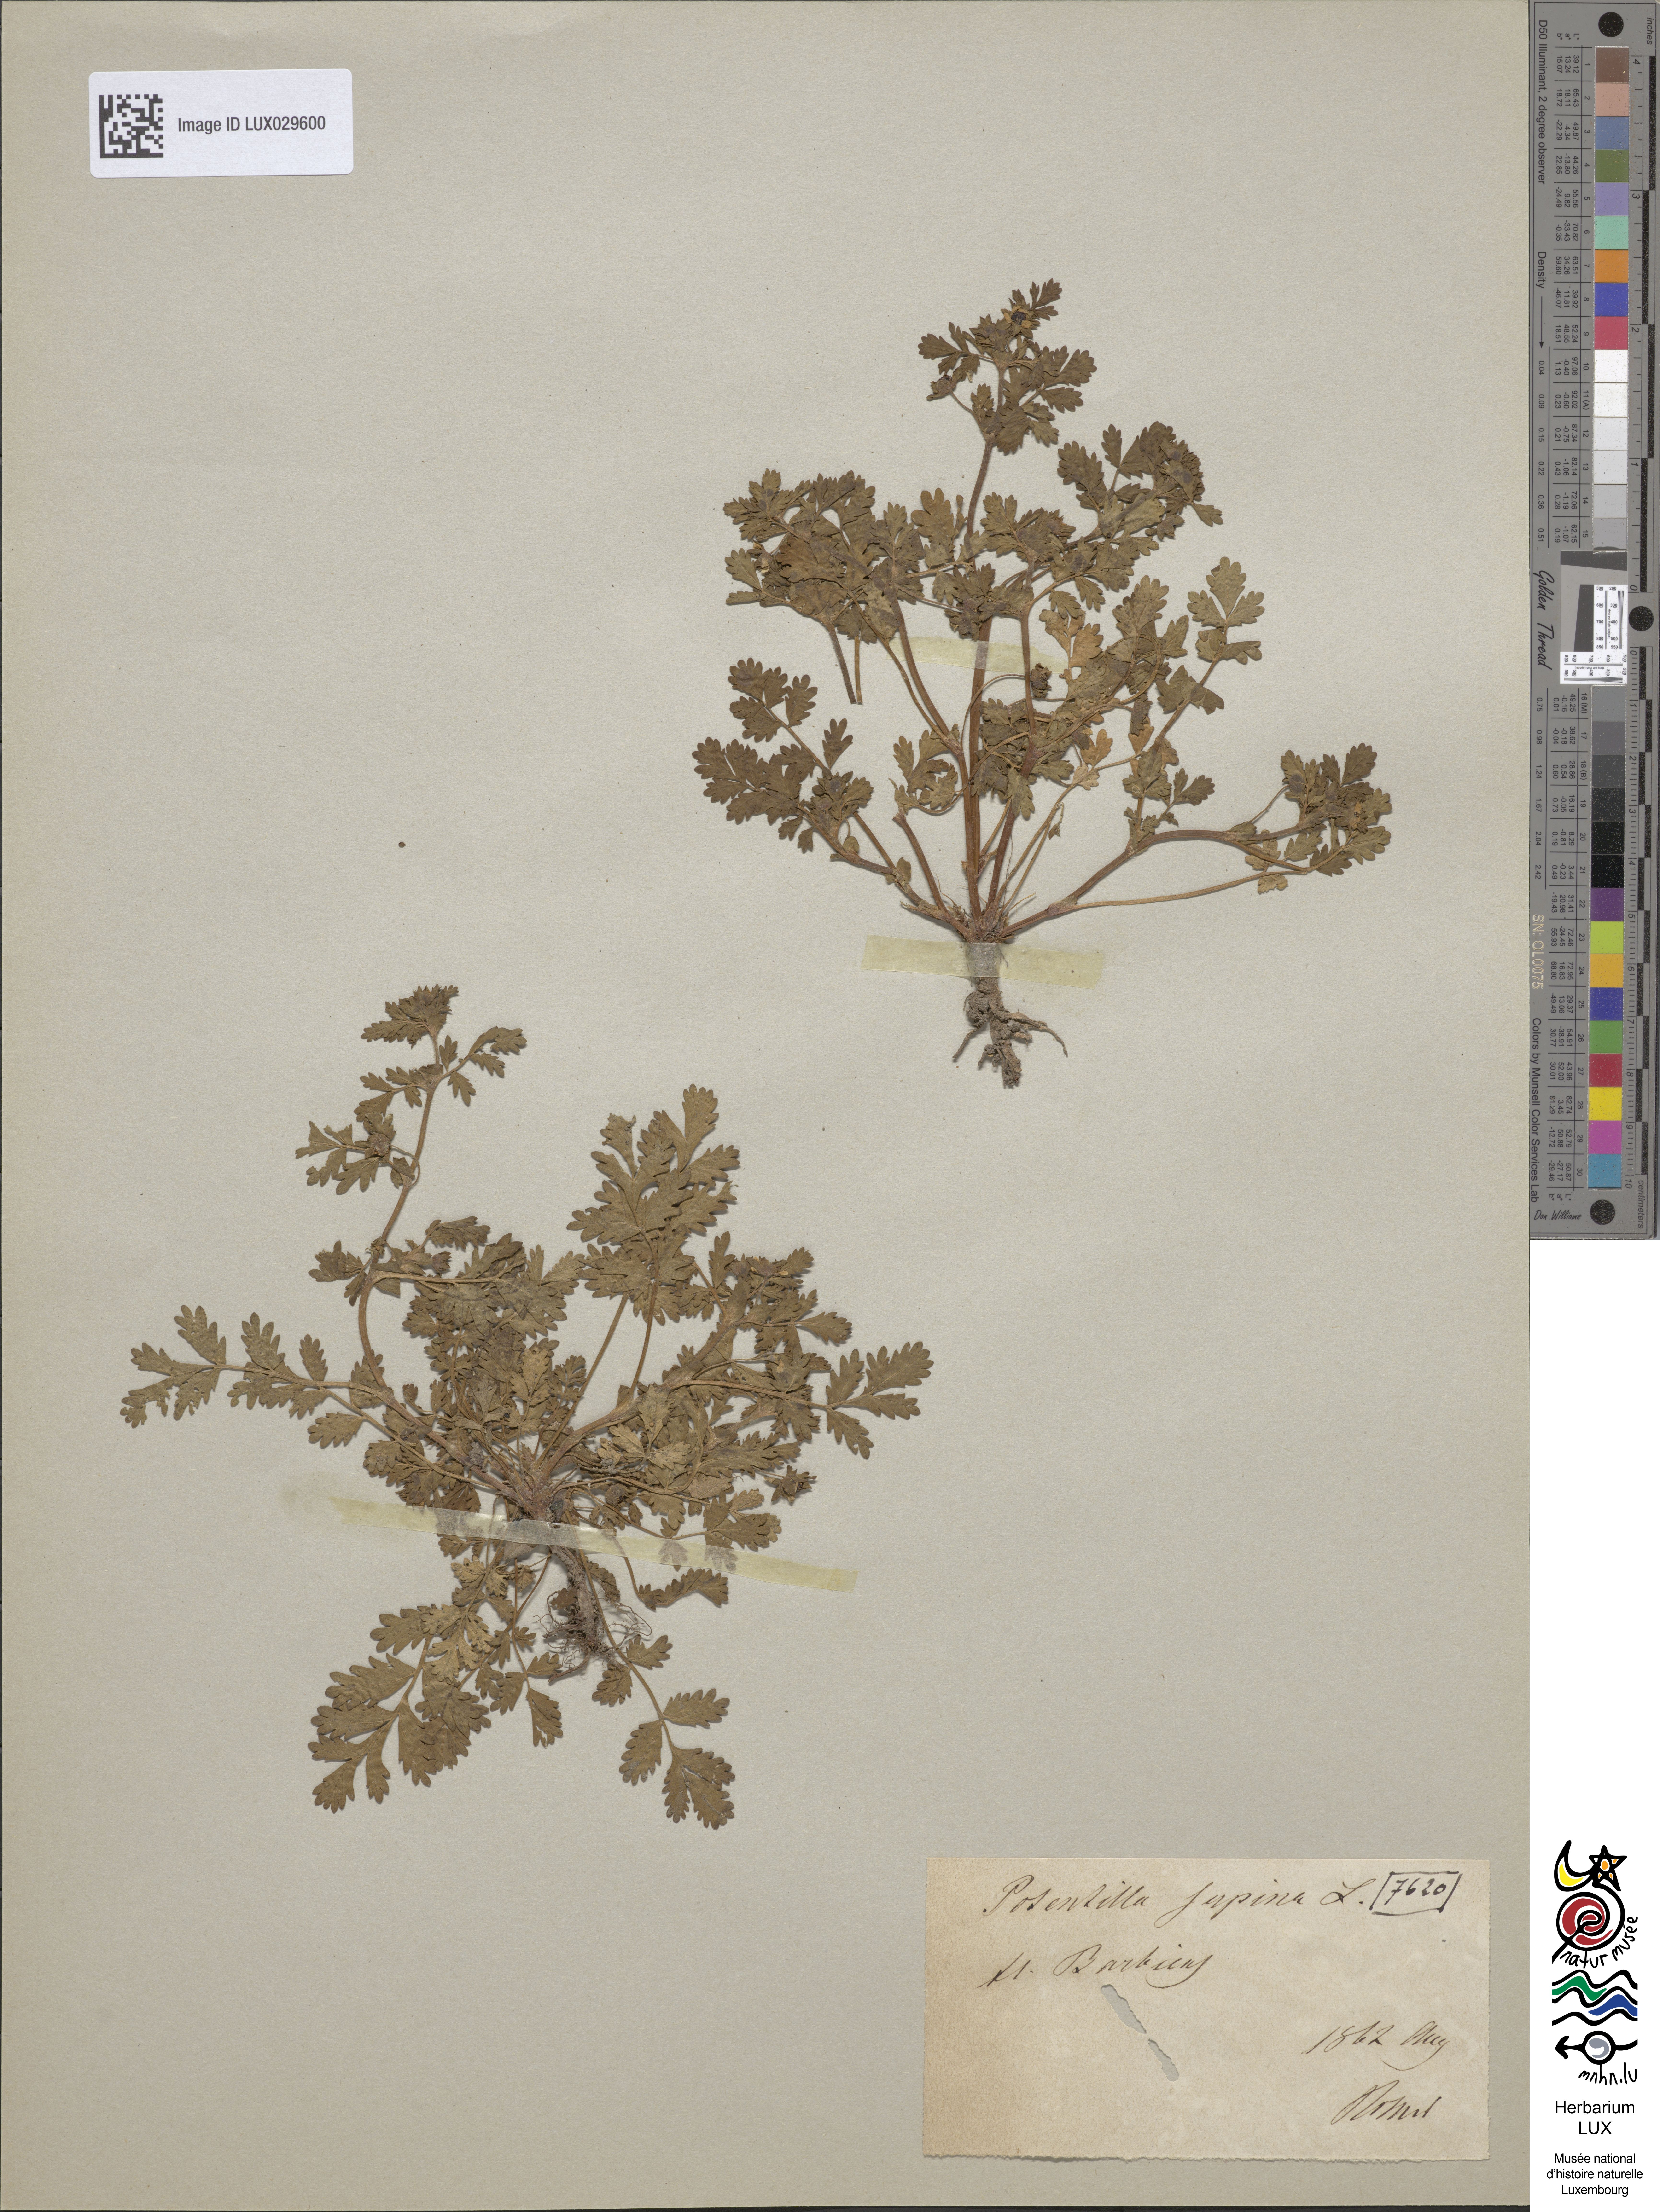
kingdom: Plantae
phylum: Tracheophyta
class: Magnoliopsida
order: Rosales
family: Rosaceae
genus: Potentilla
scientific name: Potentilla supina
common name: Prostrate cinquefoil
